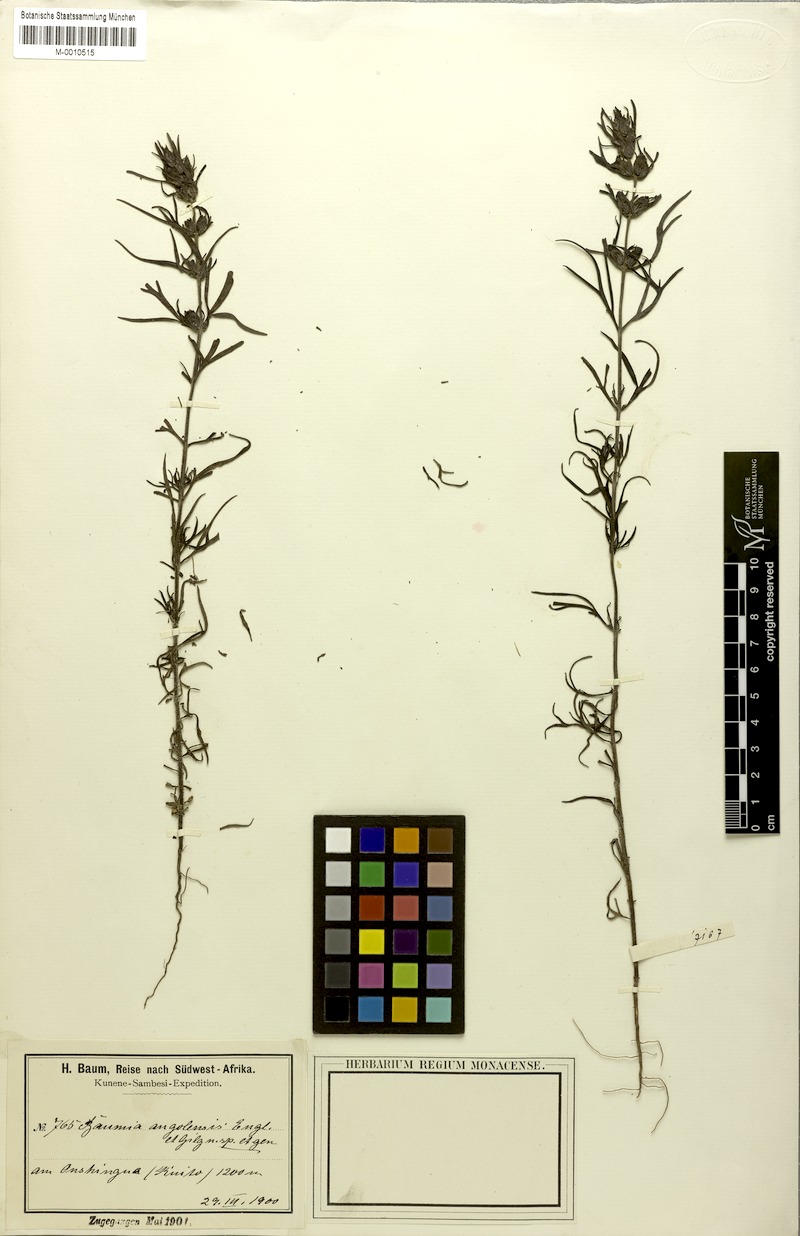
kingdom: Plantae
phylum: Tracheophyta
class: Magnoliopsida
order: Lamiales
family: Orobanchaceae
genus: Baumia
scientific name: Baumia angolensis
